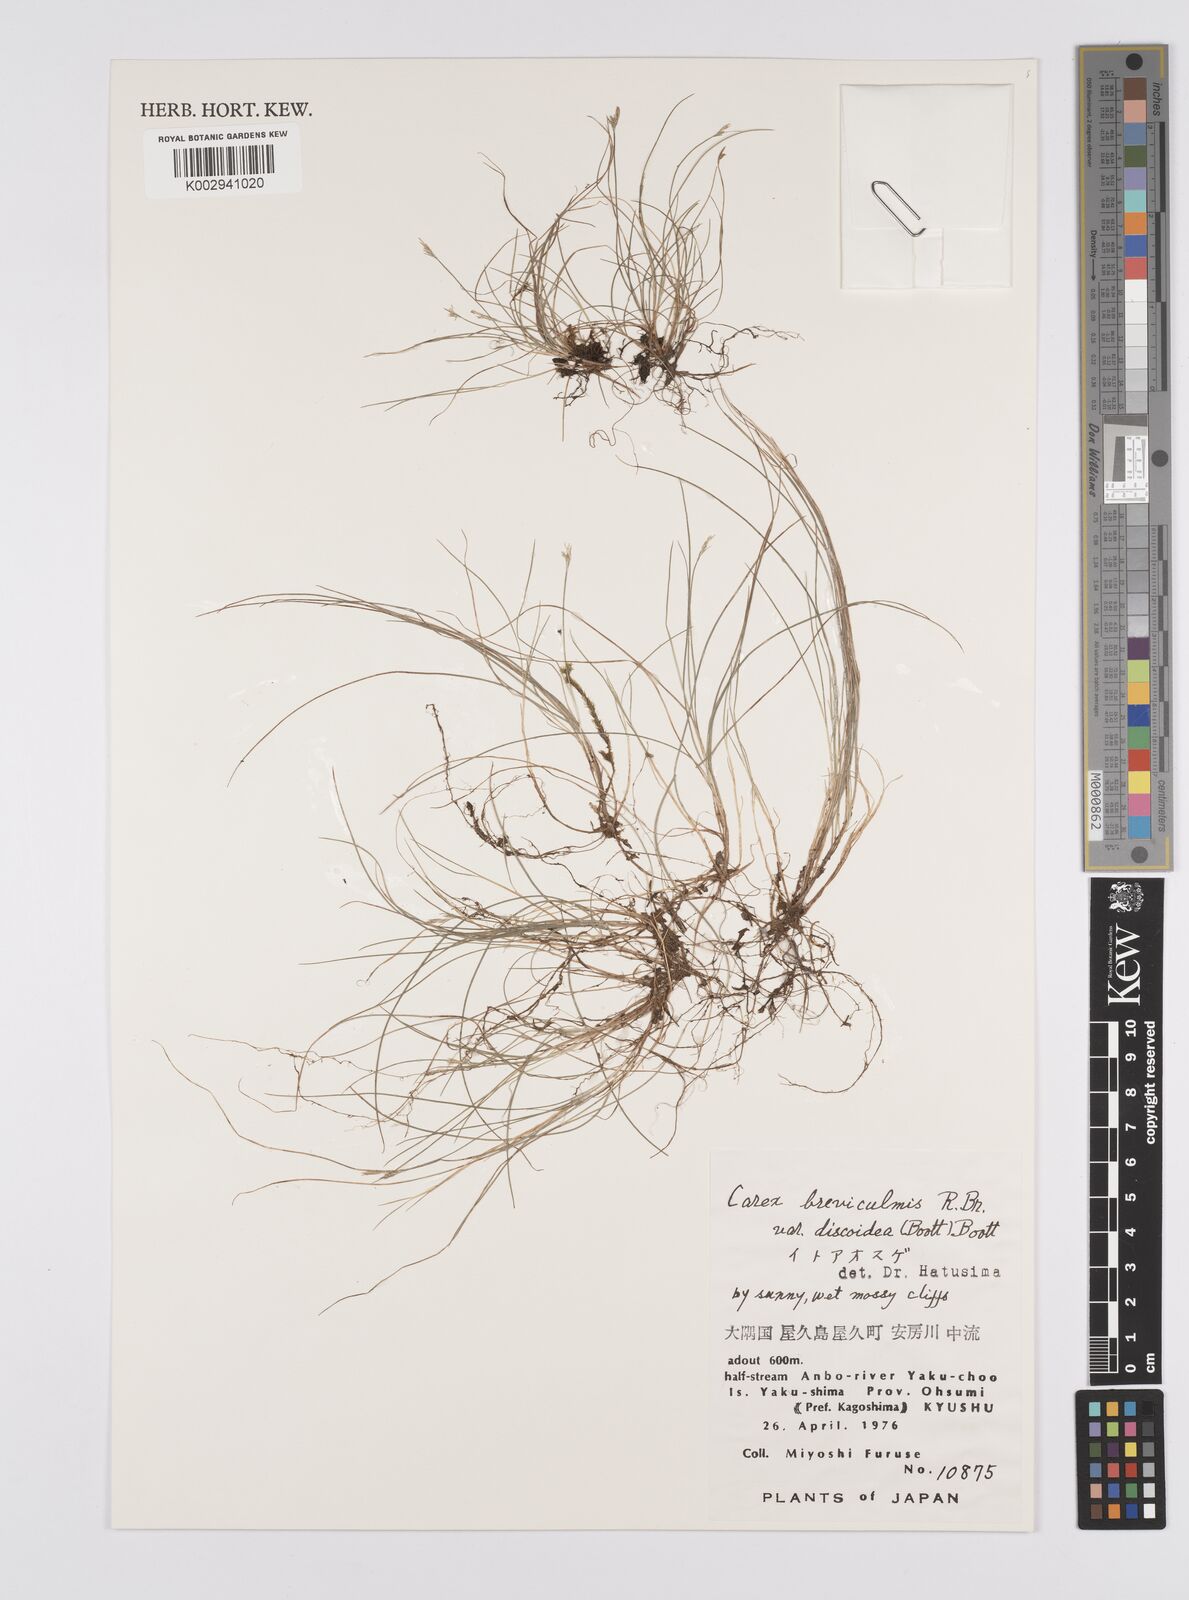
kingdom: Plantae
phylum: Tracheophyta
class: Liliopsida
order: Poales
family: Cyperaceae
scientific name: Cyperaceae
